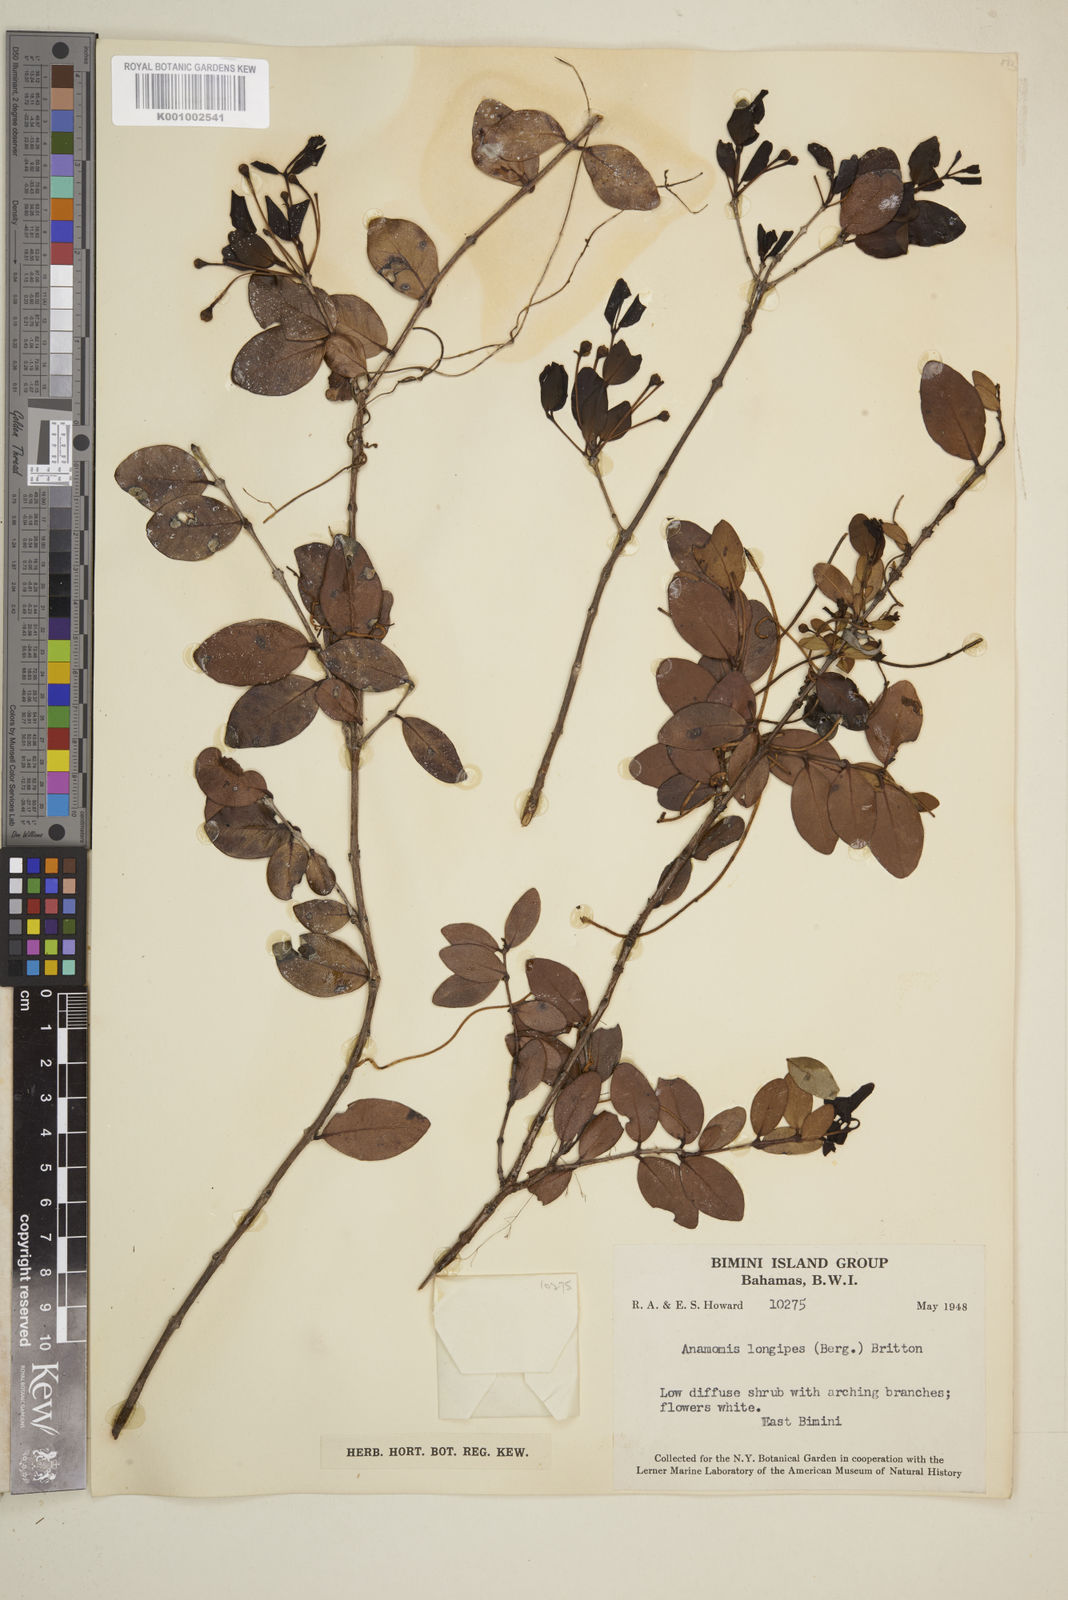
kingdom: Plantae
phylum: Tracheophyta
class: Magnoliopsida
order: Myrtales
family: Myrtaceae
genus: Mosiera
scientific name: Mosiera longipes
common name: Bahama stopper
